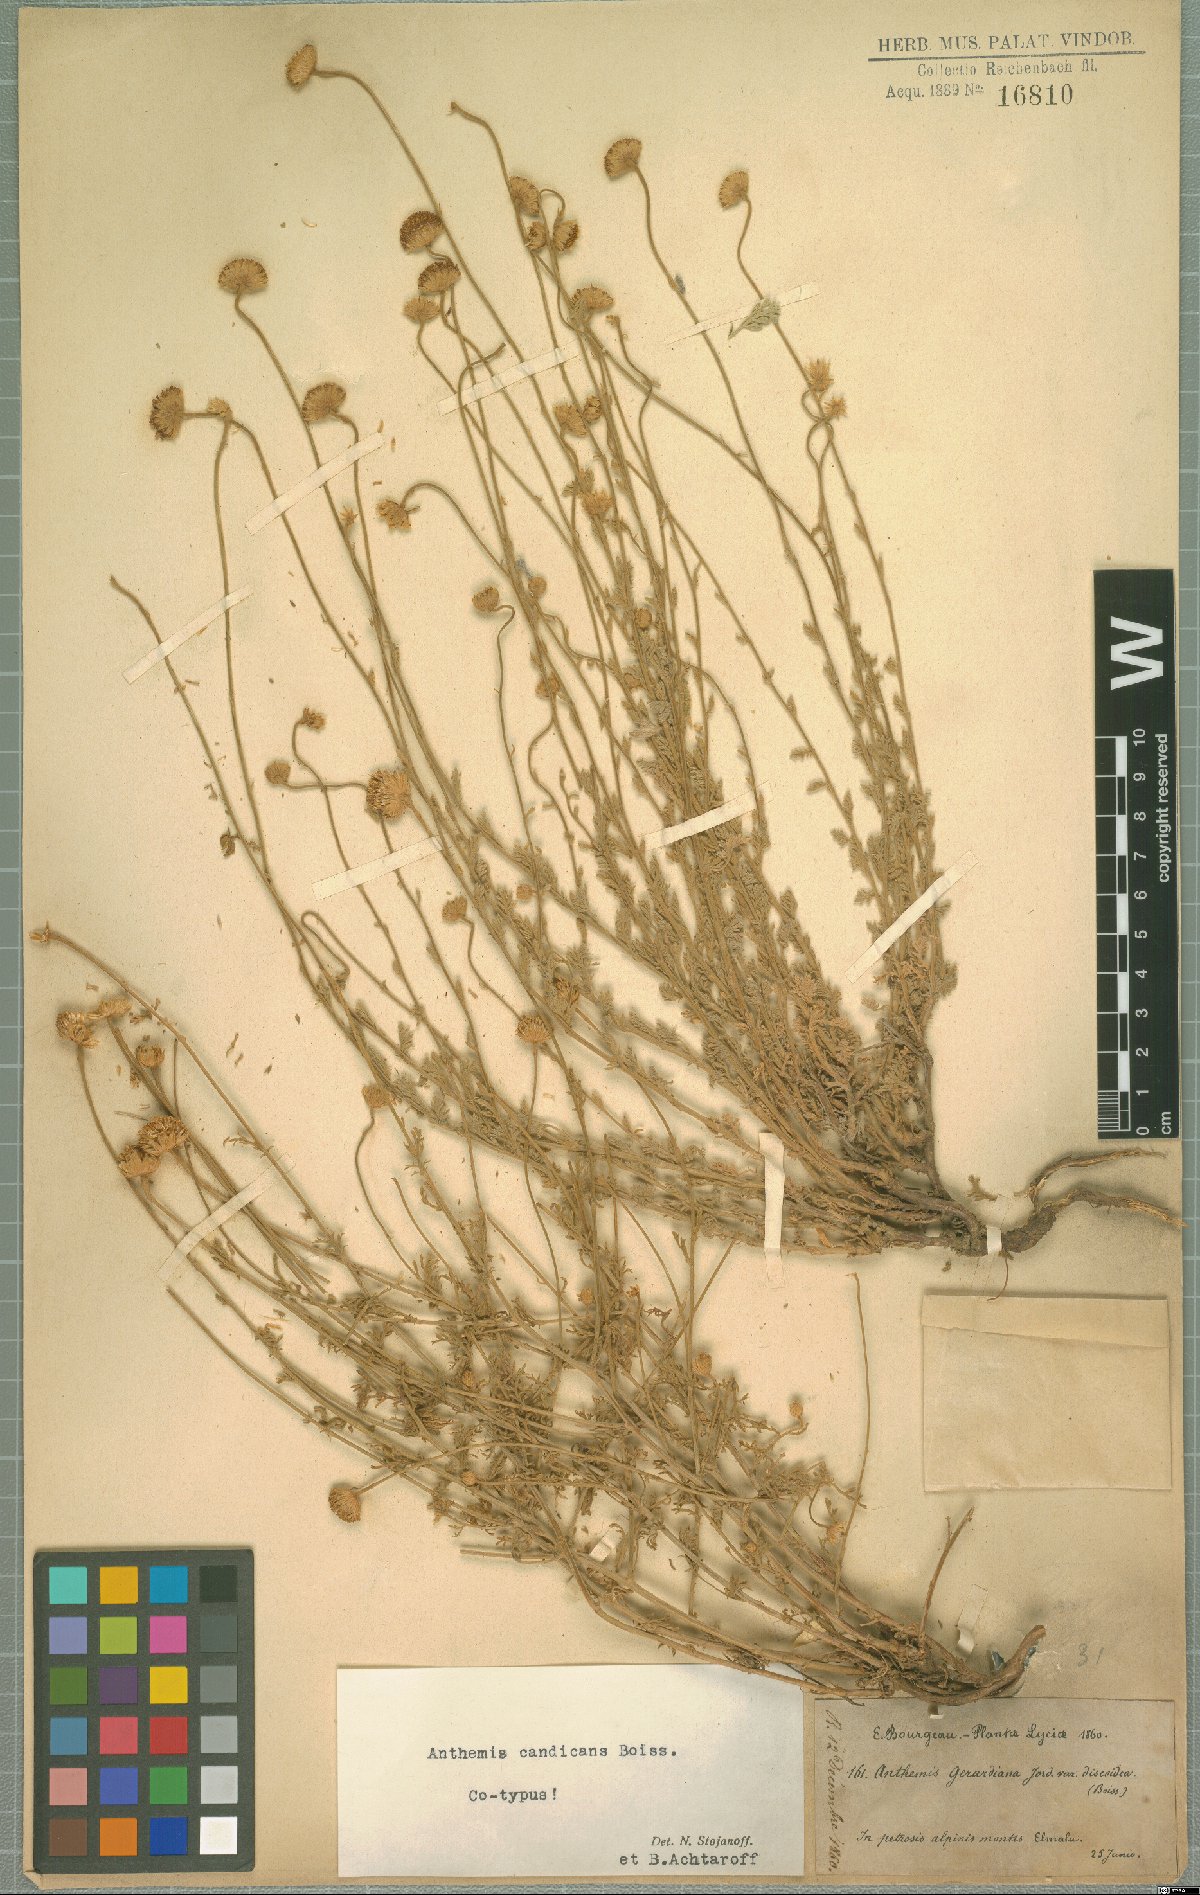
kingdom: Plantae
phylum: Tracheophyta
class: Magnoliopsida
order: Asterales
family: Asteraceae
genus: Anthemis
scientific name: Anthemis cretica
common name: Mountain dog-daisy
